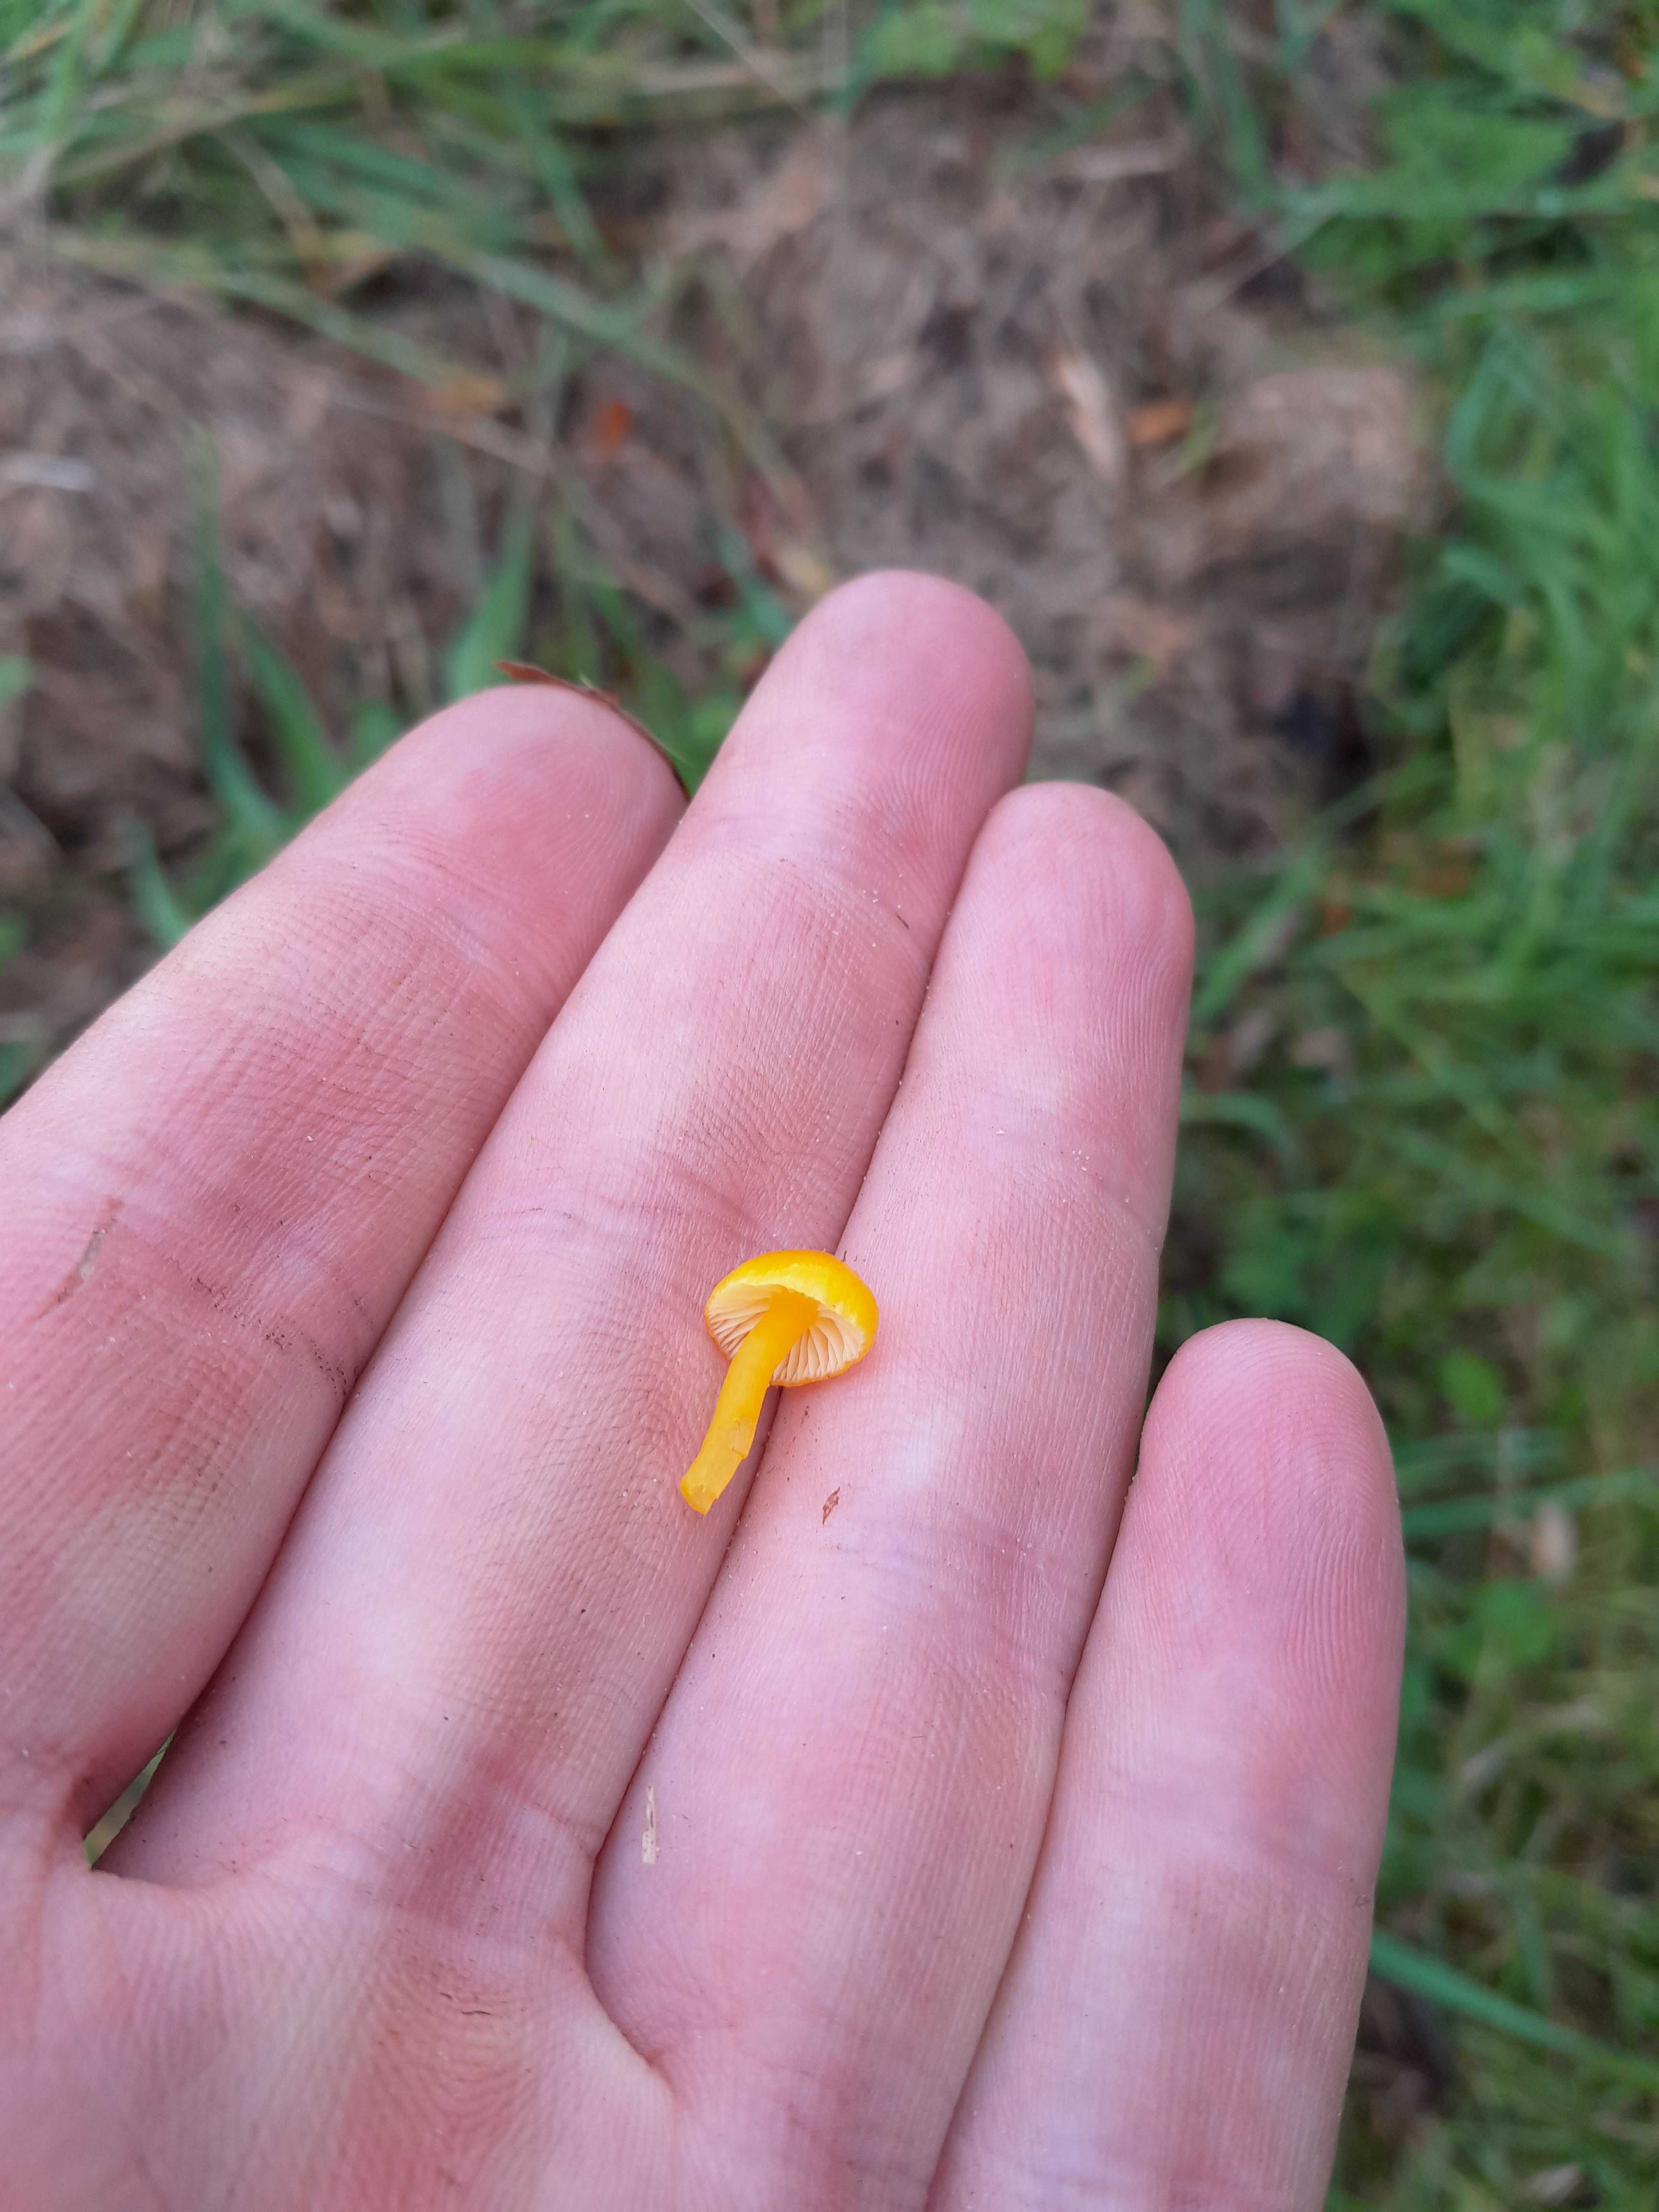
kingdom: Fungi
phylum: Basidiomycota
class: Agaricomycetes
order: Agaricales
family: Hygrophoraceae
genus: Hygrocybe
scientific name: Hygrocybe ceracea
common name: voksgul vokshat
